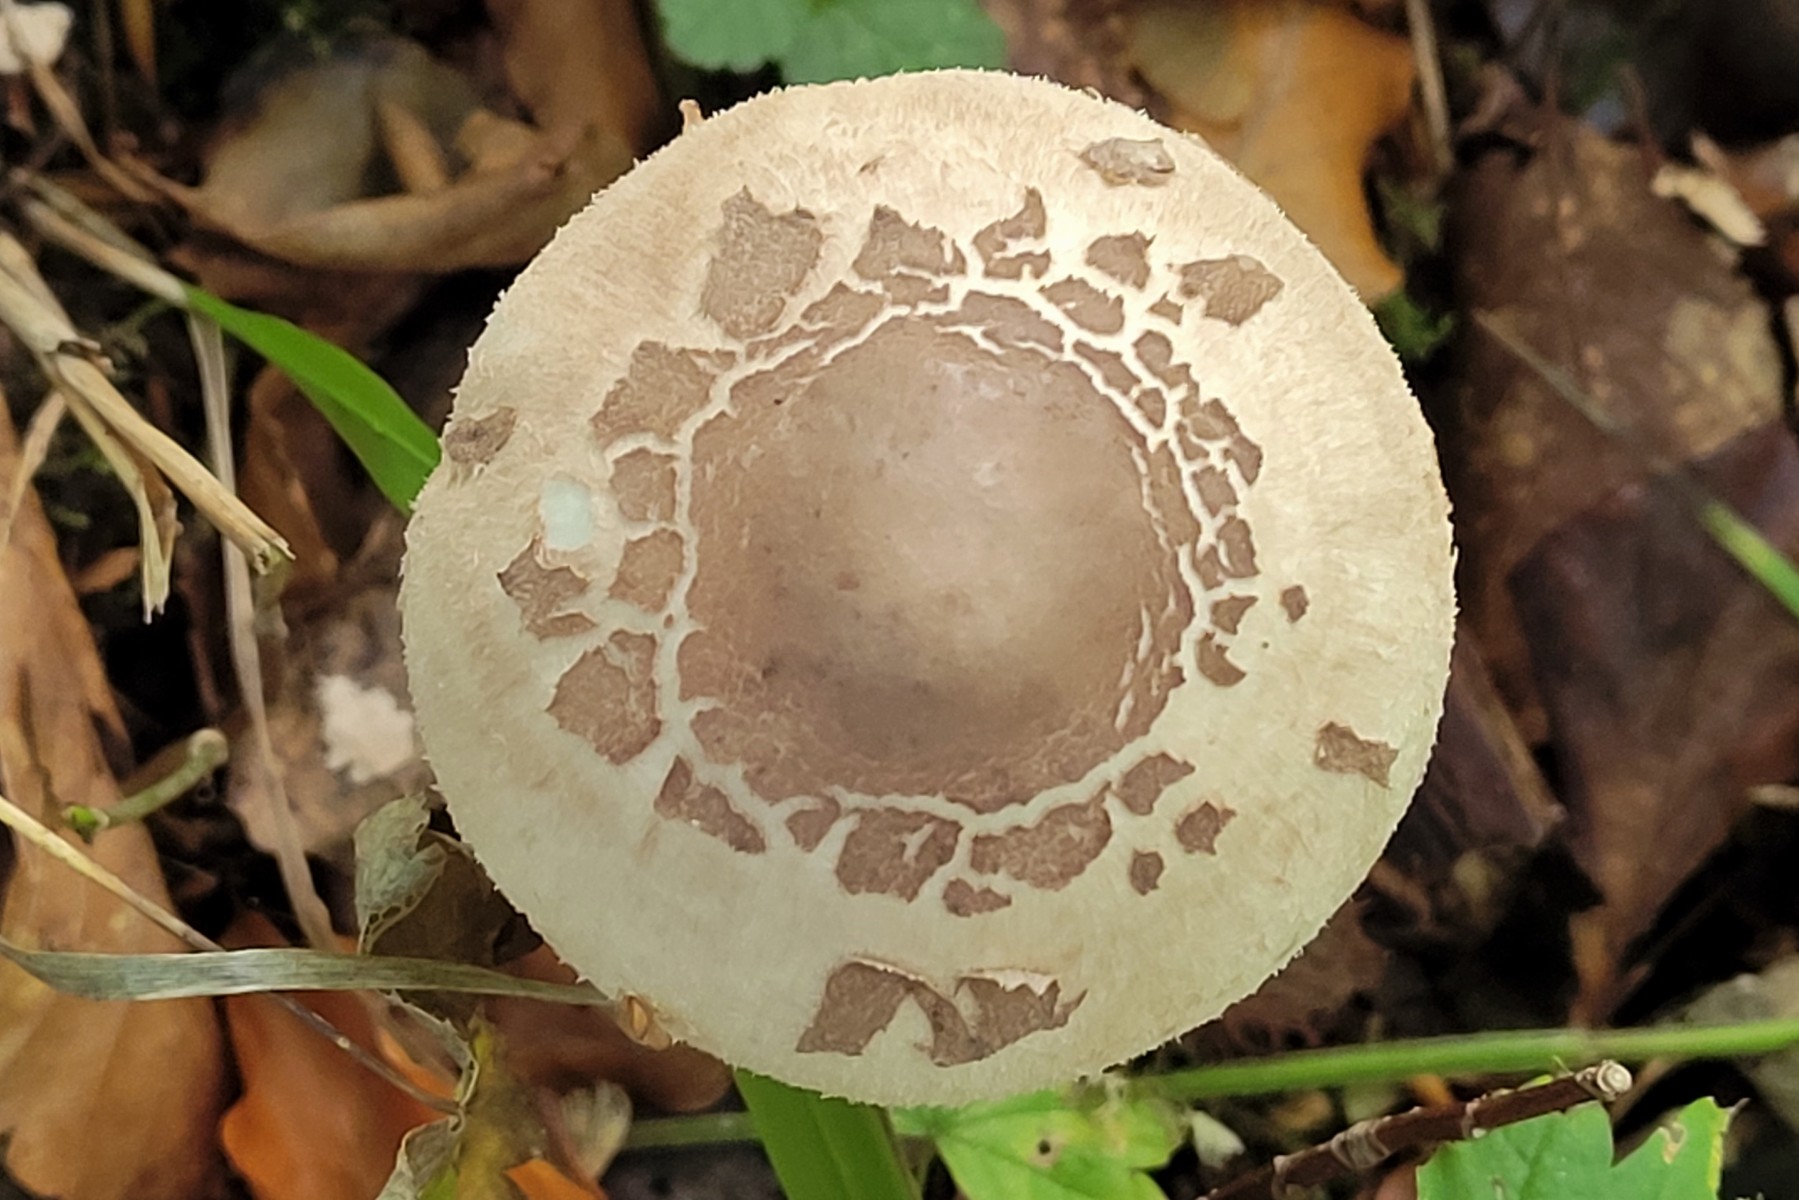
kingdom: Fungi
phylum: Basidiomycota
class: Agaricomycetes
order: Agaricales
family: Agaricaceae
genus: Macrolepiota
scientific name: Macrolepiota fuliginosa
